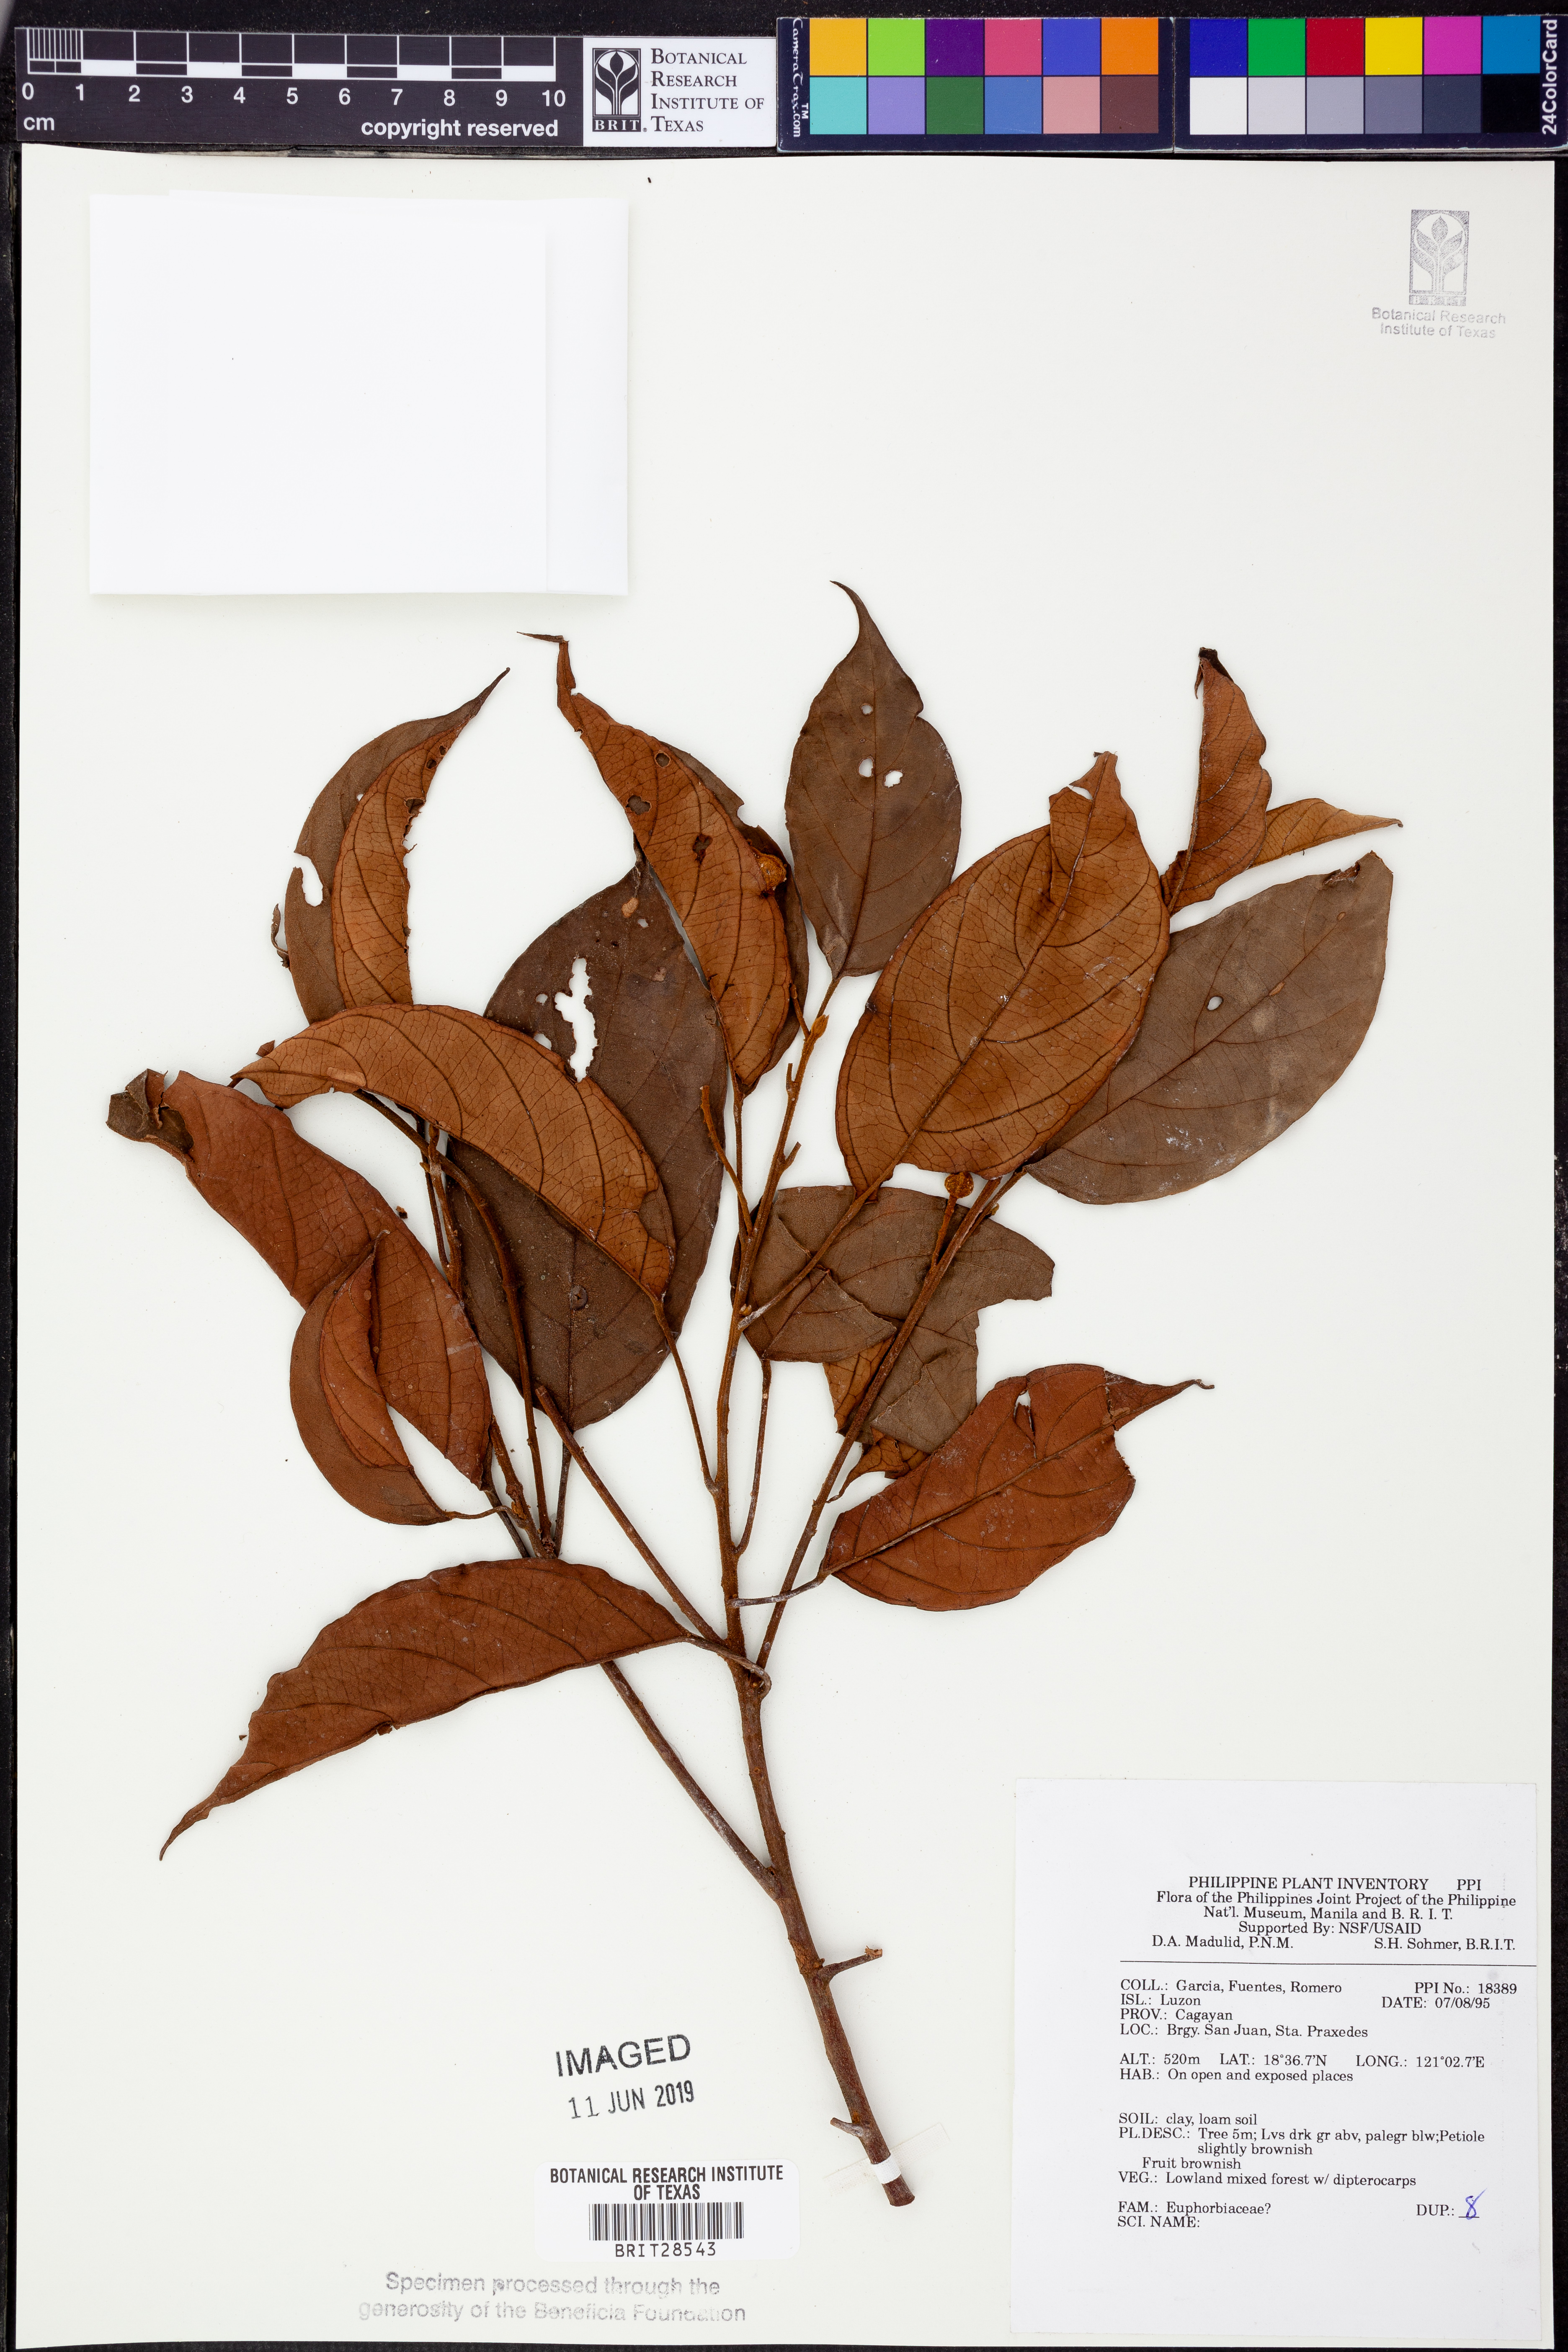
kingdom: Plantae
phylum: Tracheophyta
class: Magnoliopsida
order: Malpighiales
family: Euphorbiaceae
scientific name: Euphorbiaceae
